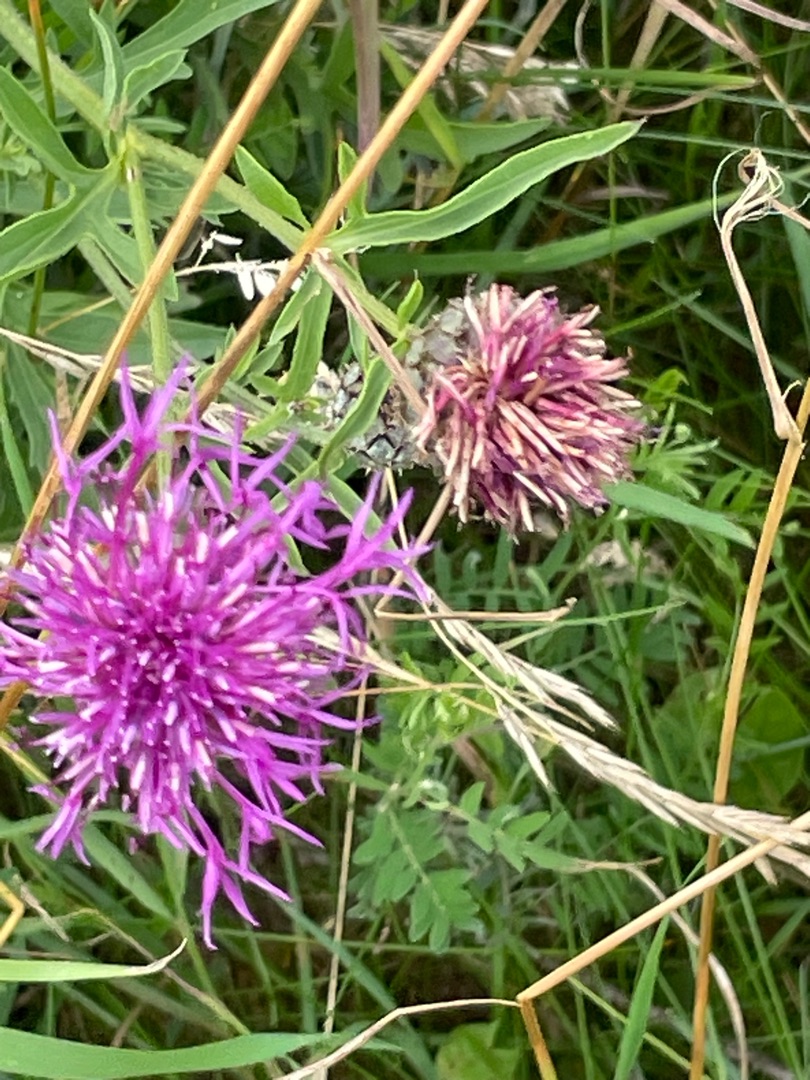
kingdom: Plantae
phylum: Tracheophyta
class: Magnoliopsida
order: Asterales
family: Asteraceae
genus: Centaurea
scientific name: Centaurea scabiosa
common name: Stor knopurt
